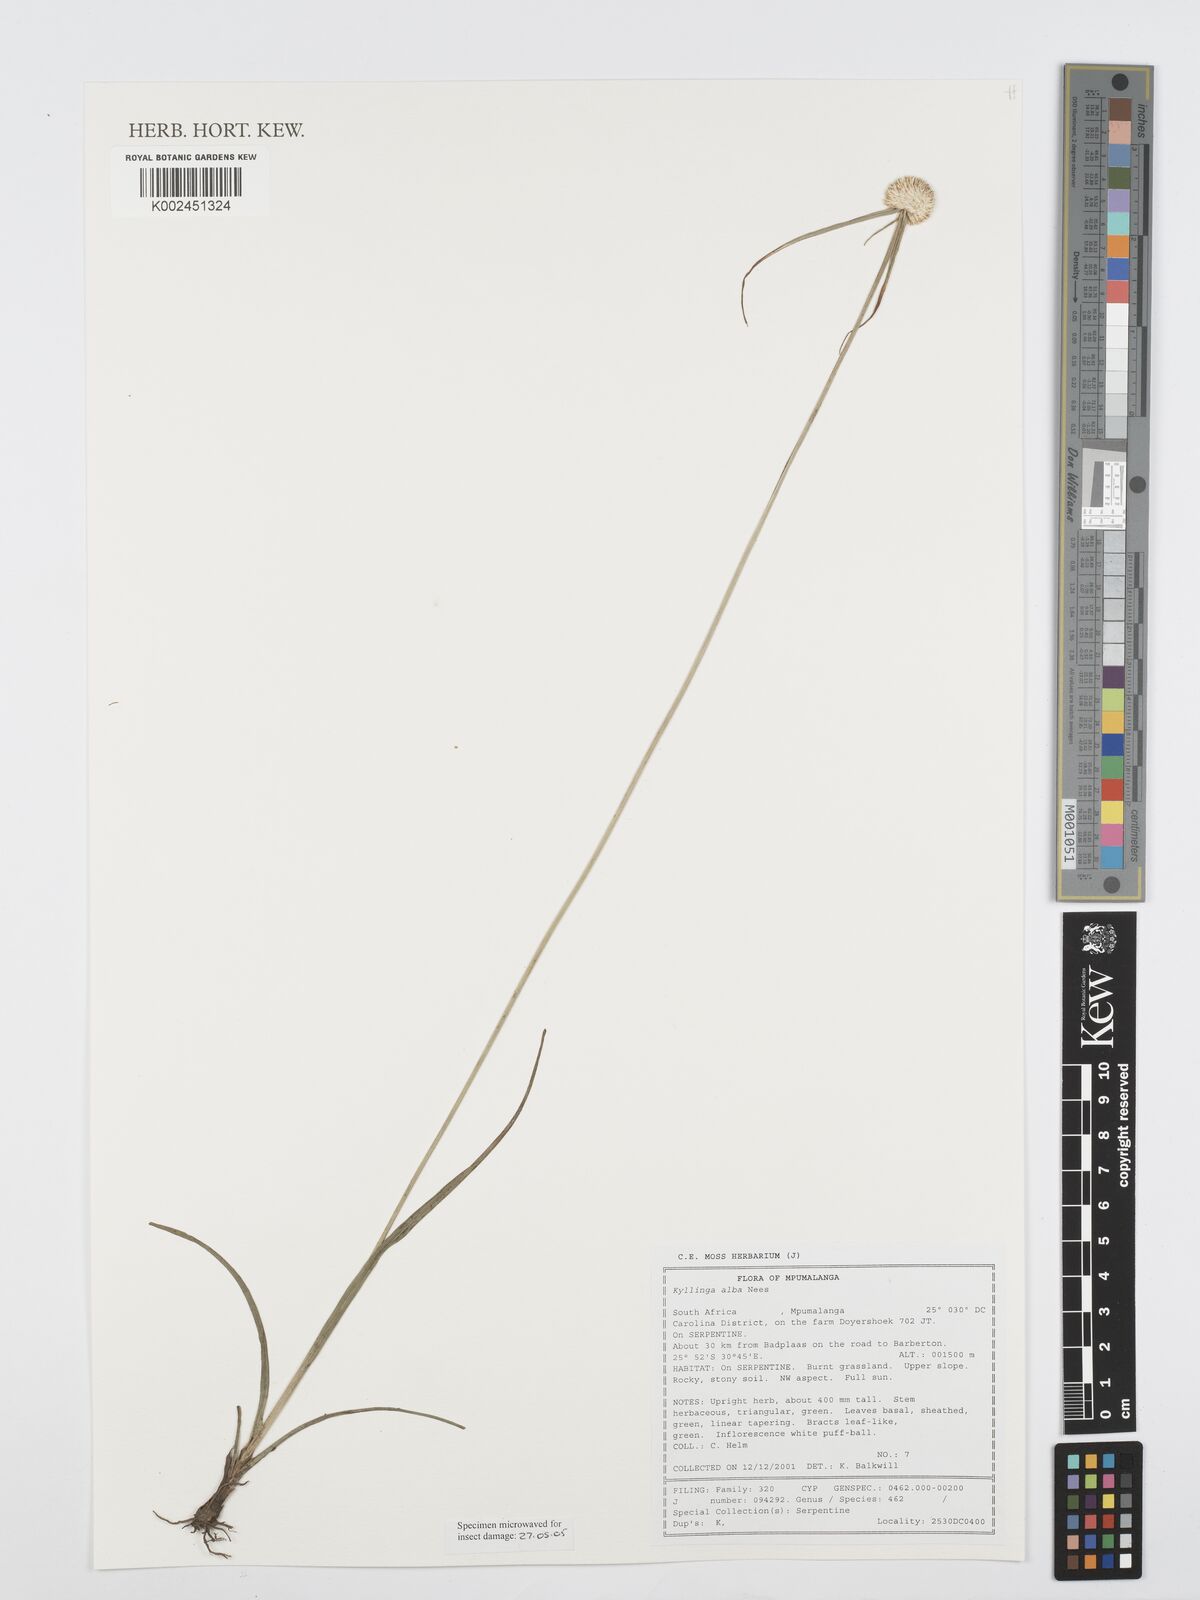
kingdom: Plantae
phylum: Tracheophyta
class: Liliopsida
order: Poales
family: Cyperaceae
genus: Cyperus
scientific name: Cyperus
